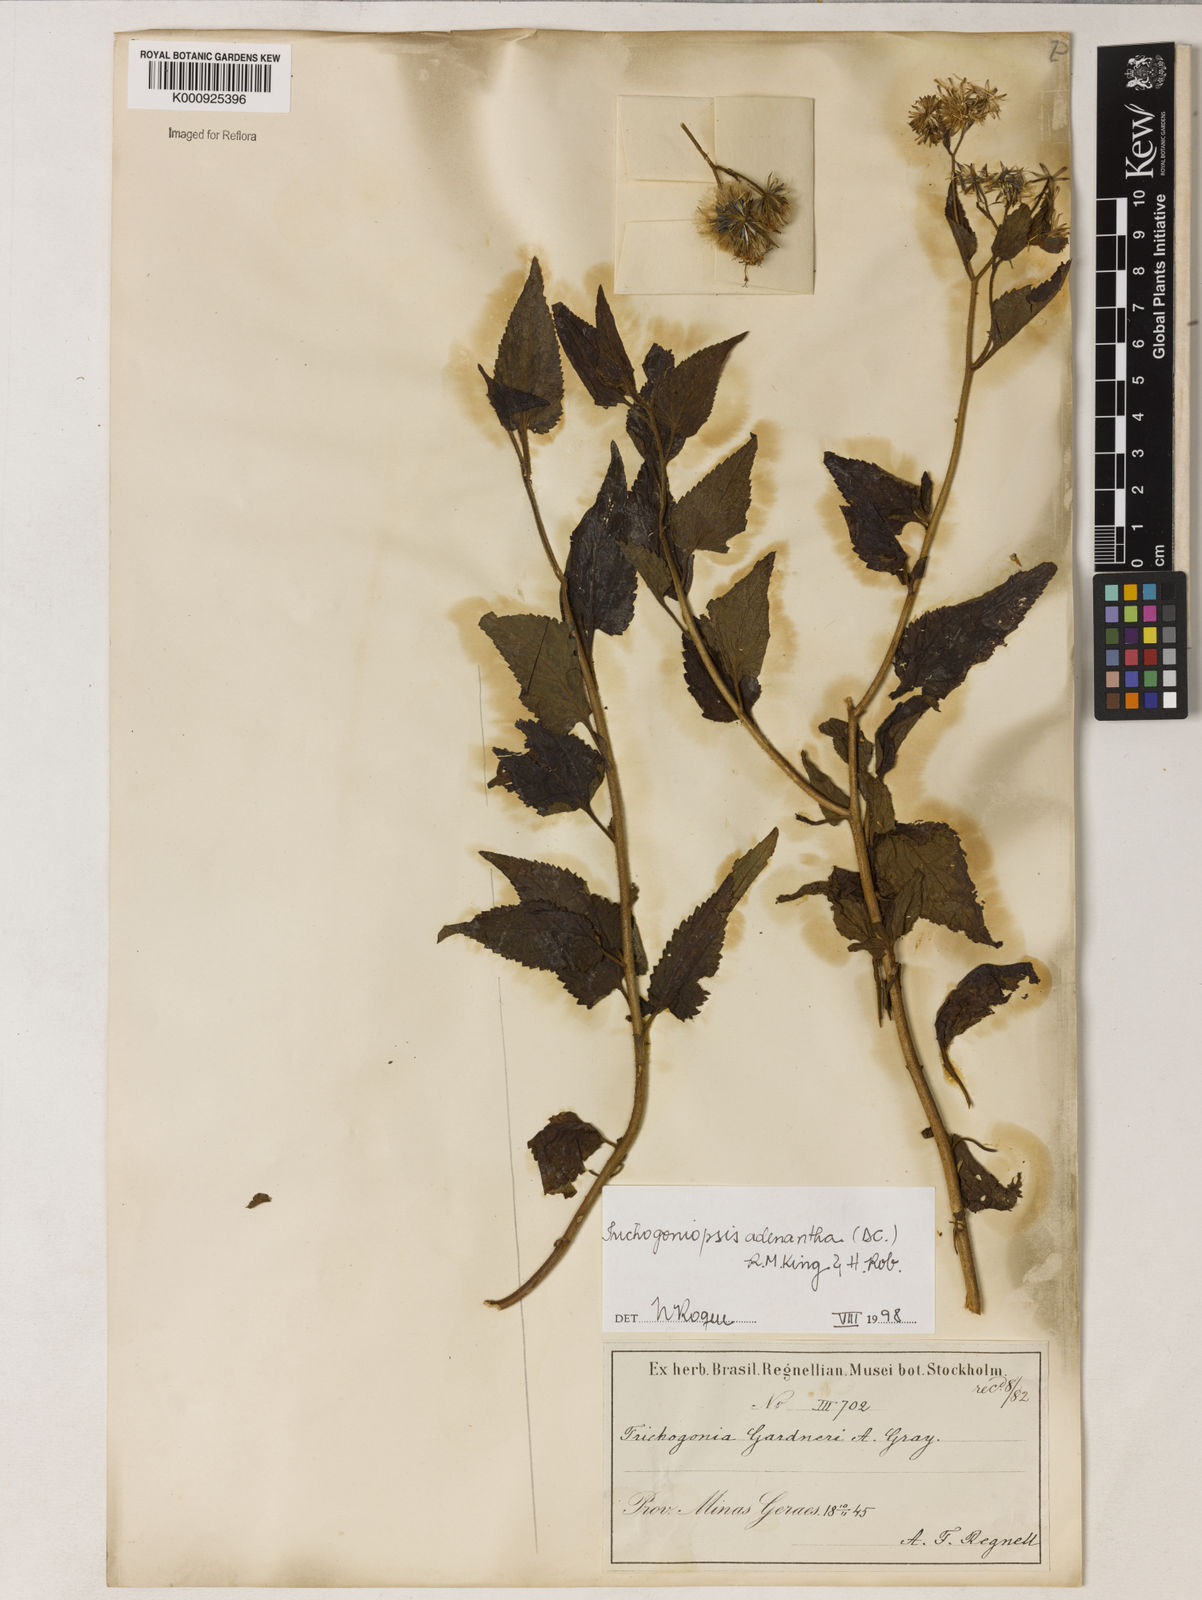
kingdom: Plantae
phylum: Tracheophyta
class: Magnoliopsida
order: Asterales
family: Asteraceae
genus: Trichogoniopsis
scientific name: Trichogoniopsis adenantha
